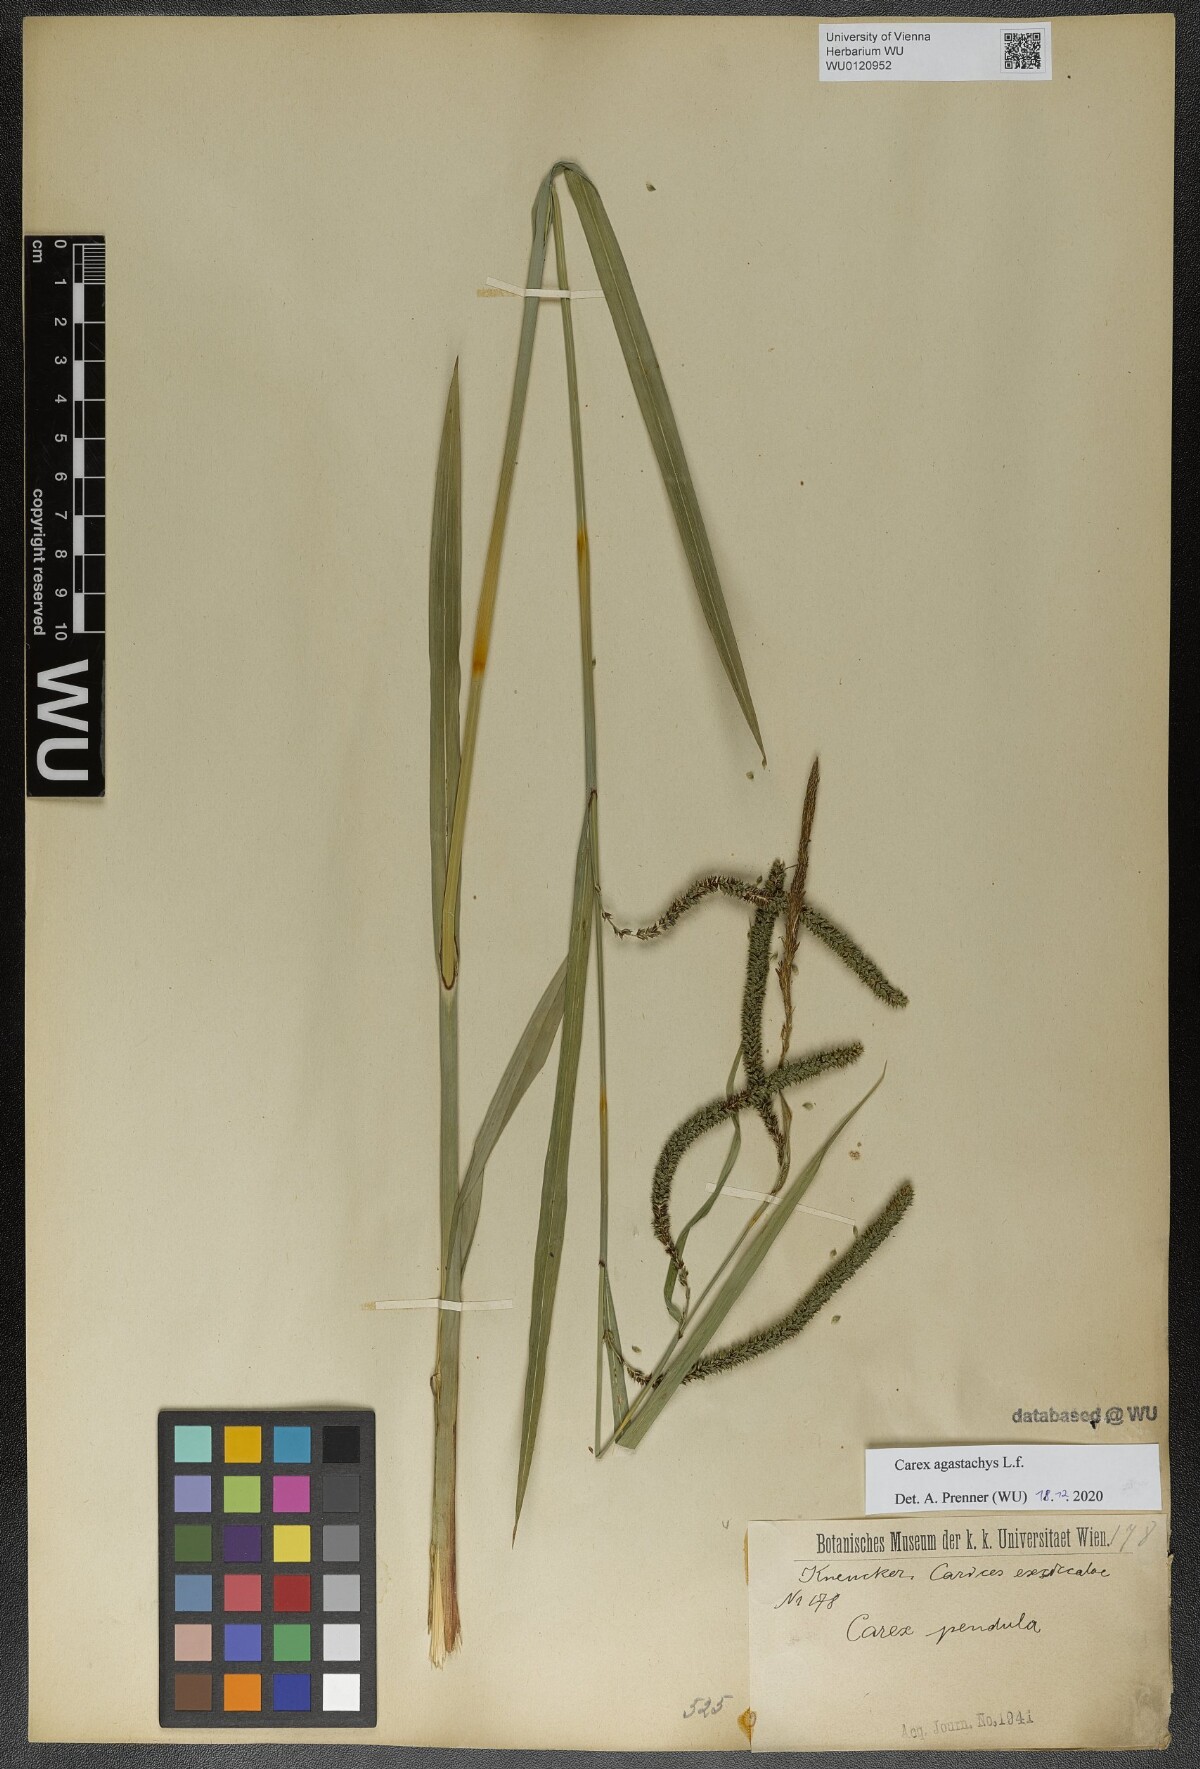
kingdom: Plantae
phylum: Tracheophyta
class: Liliopsida
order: Poales
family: Cyperaceae
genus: Carex
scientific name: Carex agastachys
